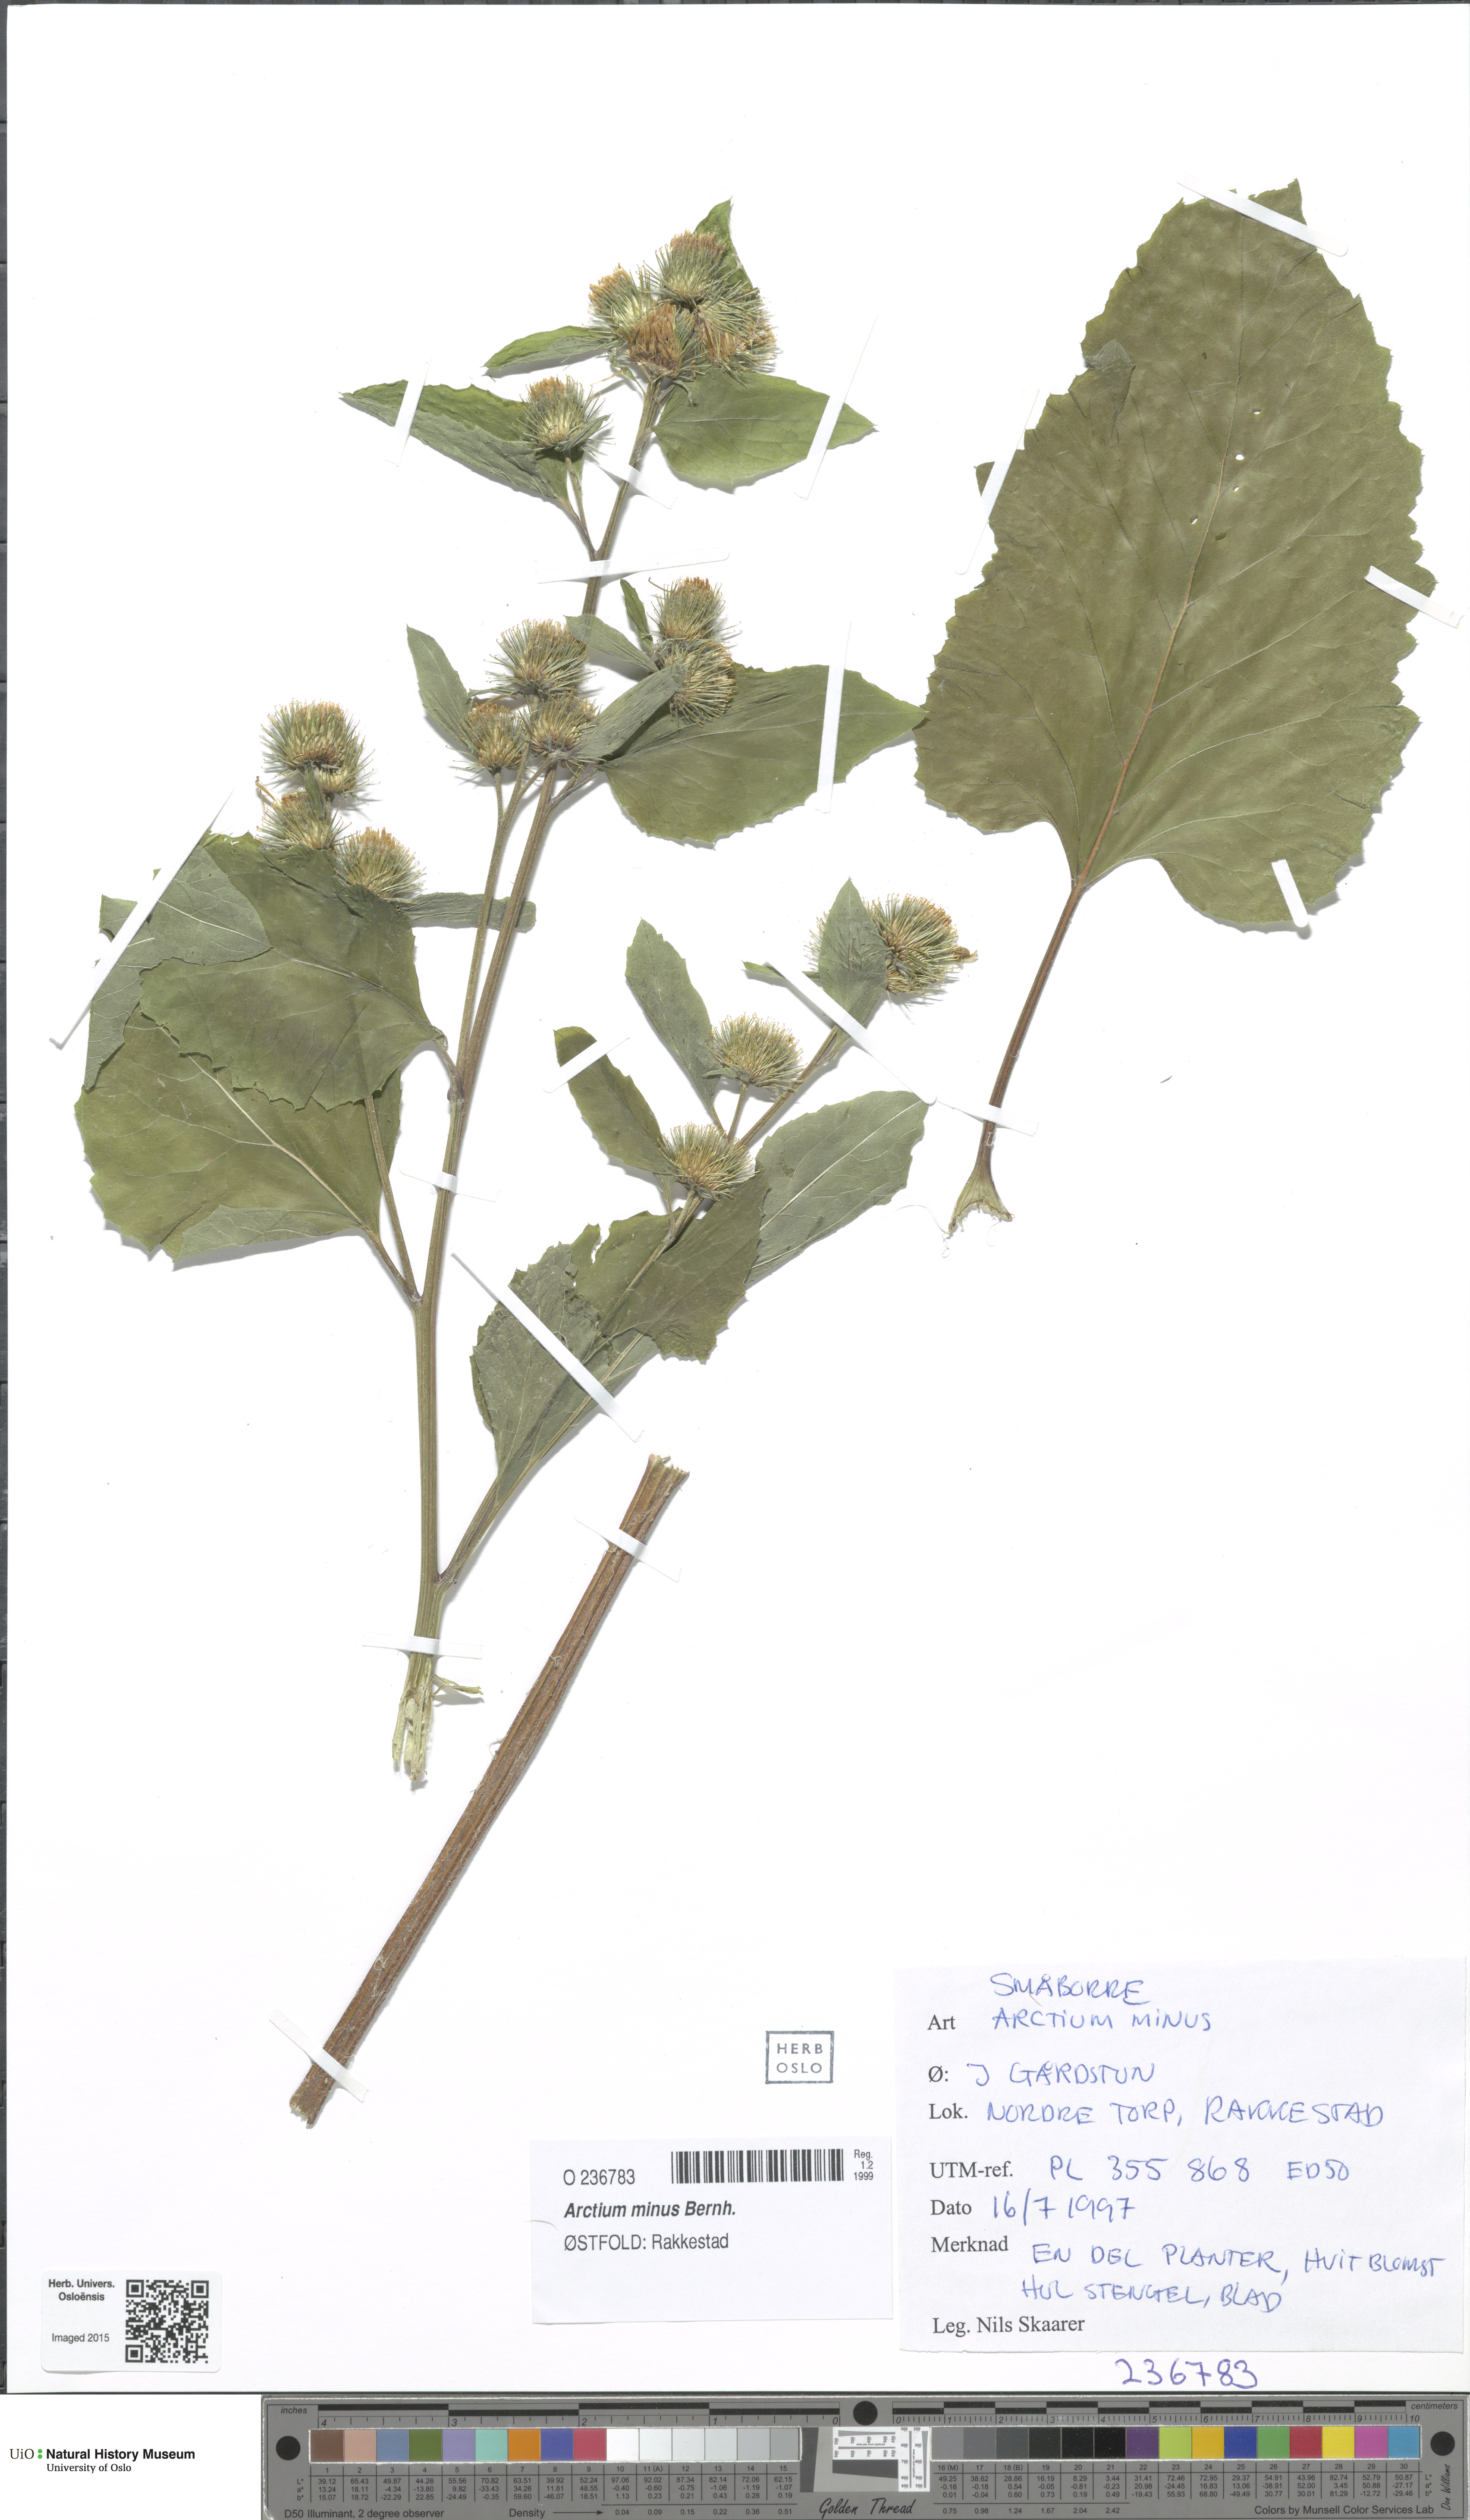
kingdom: Plantae
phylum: Tracheophyta
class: Magnoliopsida
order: Asterales
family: Asteraceae
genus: Arctium
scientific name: Arctium minus
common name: Lesser burdock
